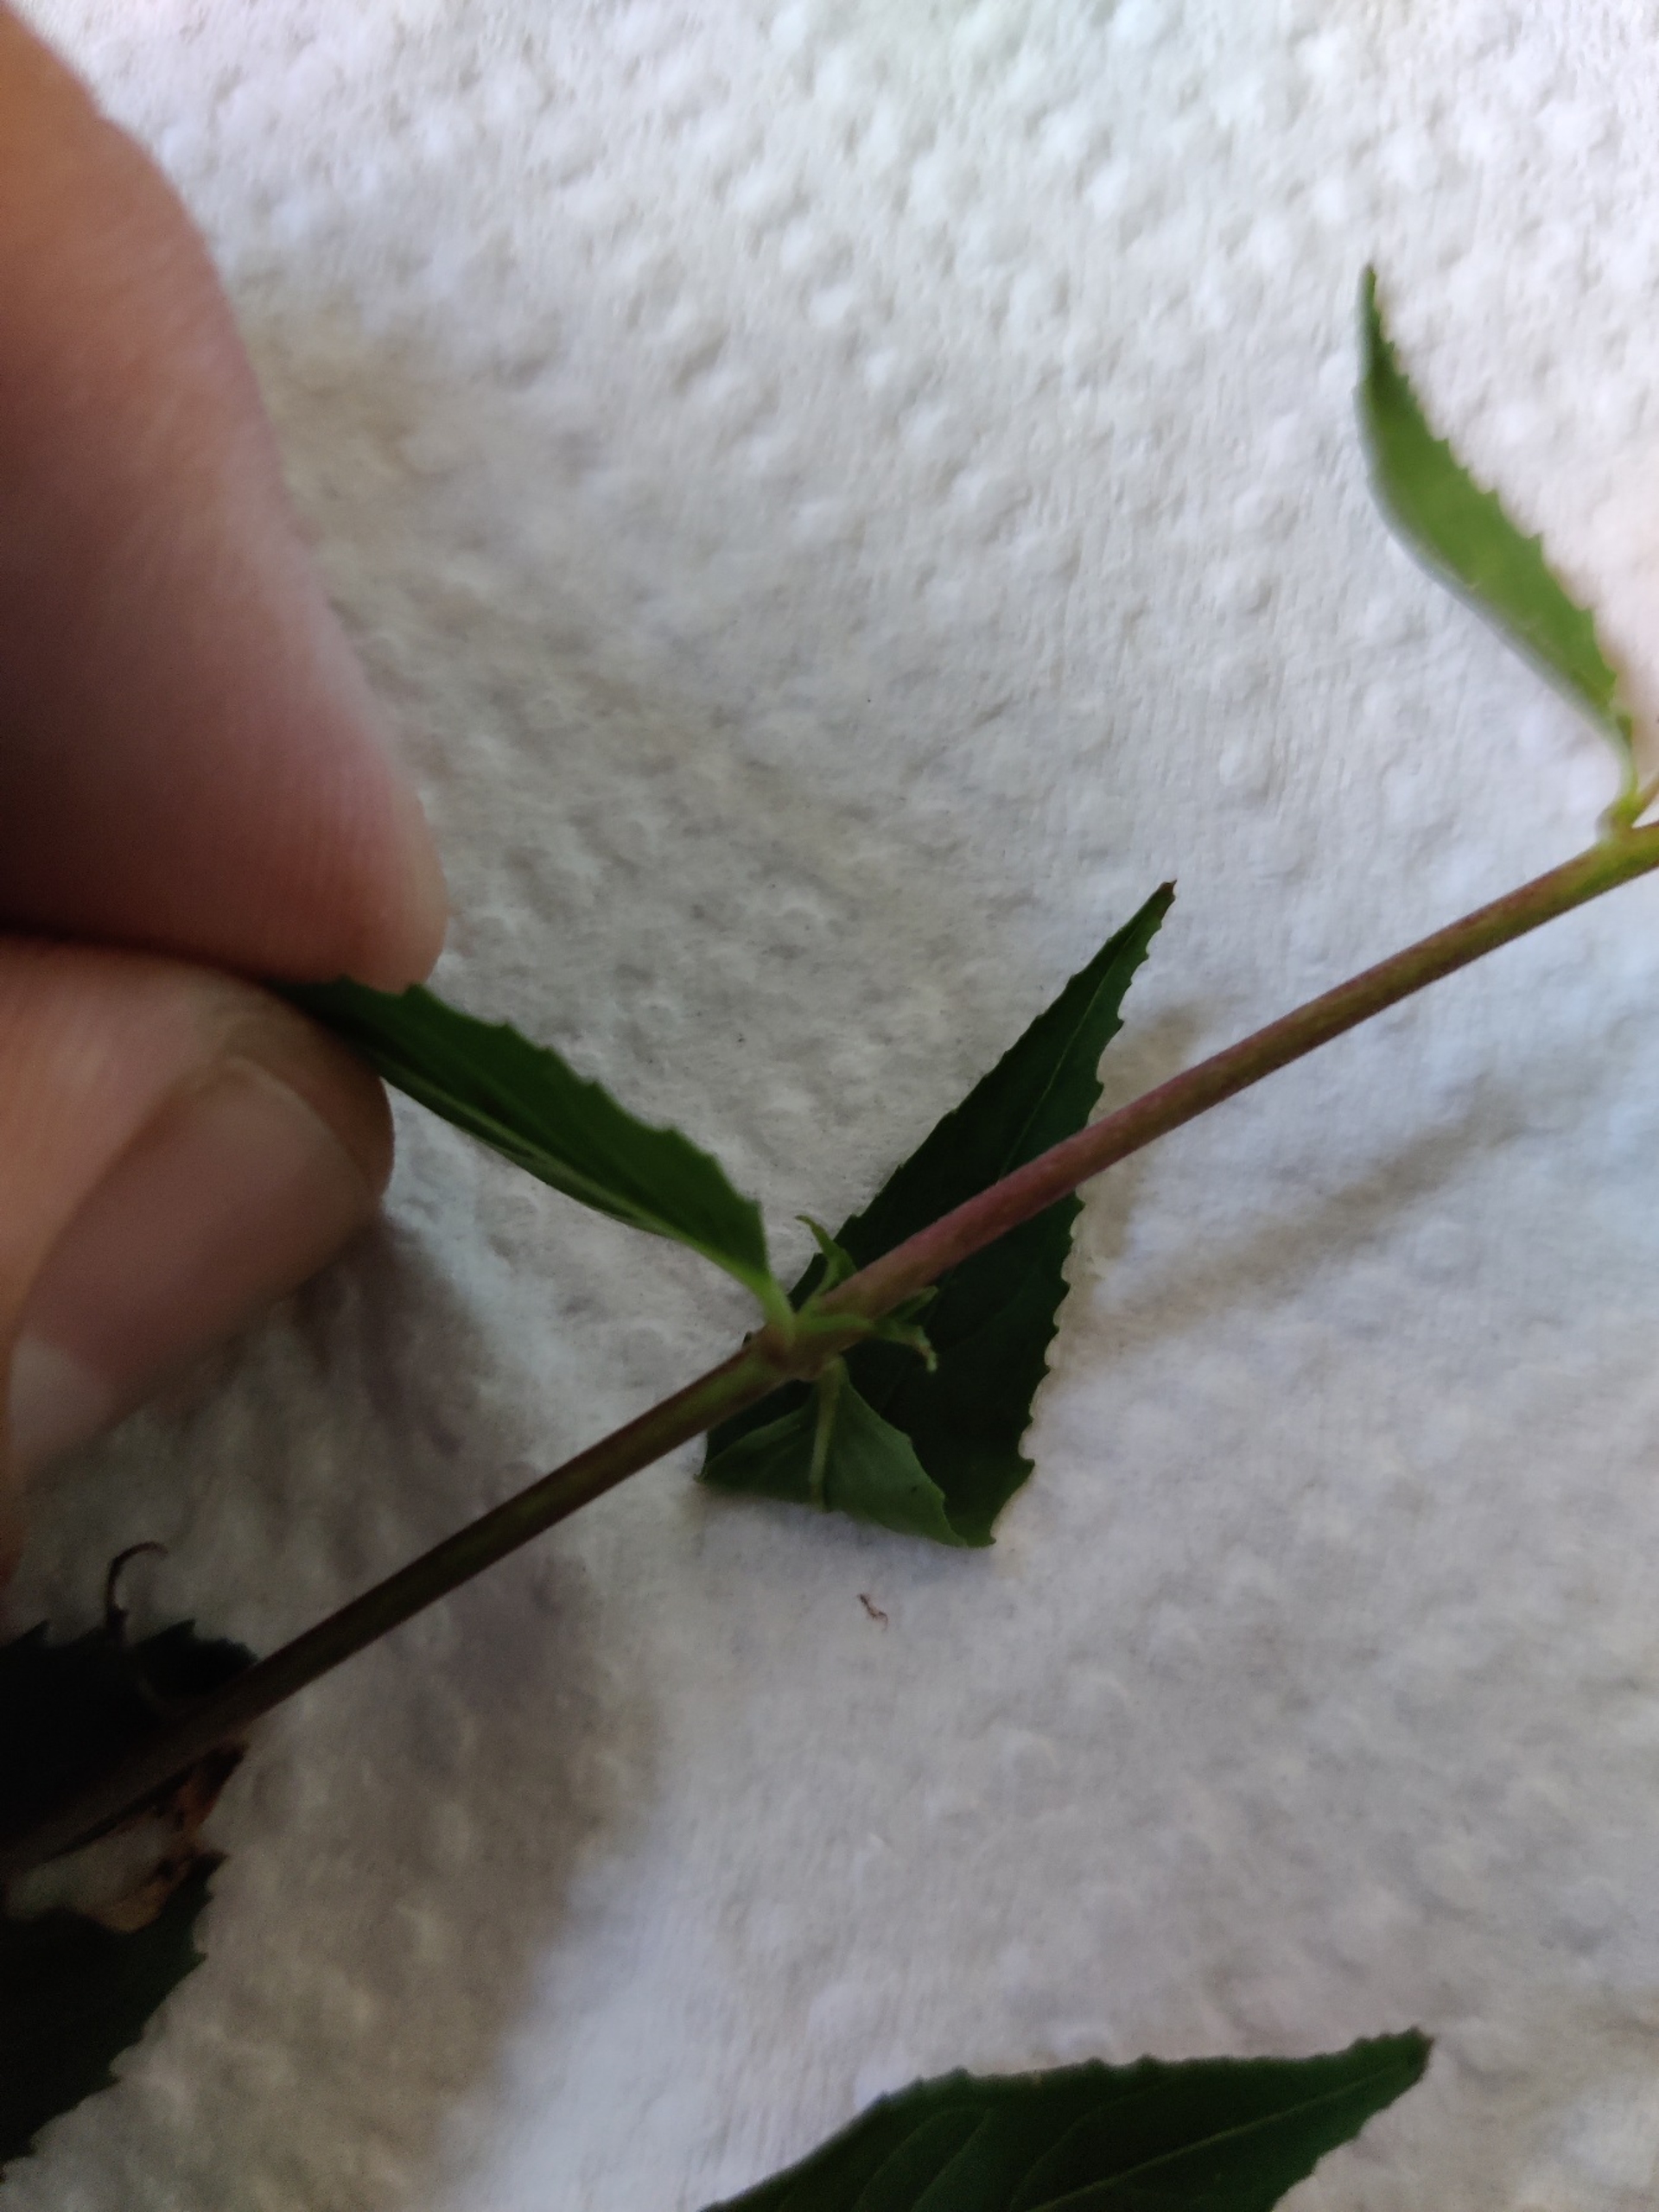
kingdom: Plantae
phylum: Tracheophyta
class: Magnoliopsida
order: Myrtales
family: Onagraceae
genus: Epilobium
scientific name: Epilobium montanum
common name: Glat dueurt
